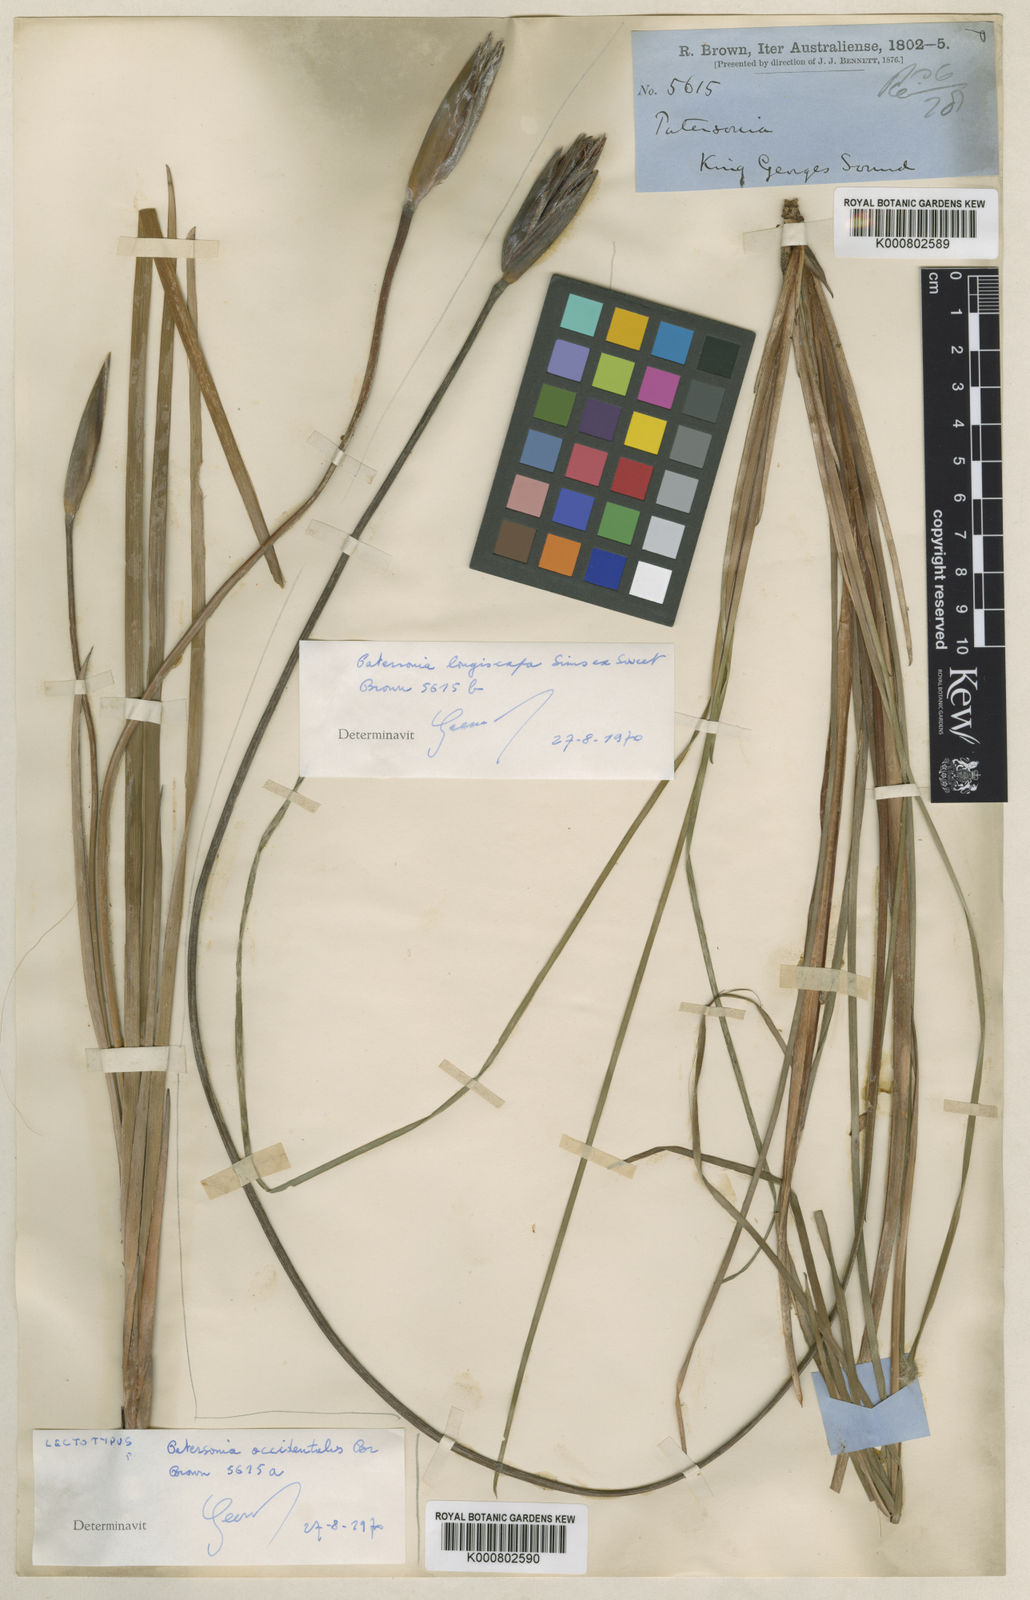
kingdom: Plantae
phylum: Tracheophyta
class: Liliopsida
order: Asparagales
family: Iridaceae
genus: Patersonia
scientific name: Patersonia occidentalis
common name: Long purple-flag
